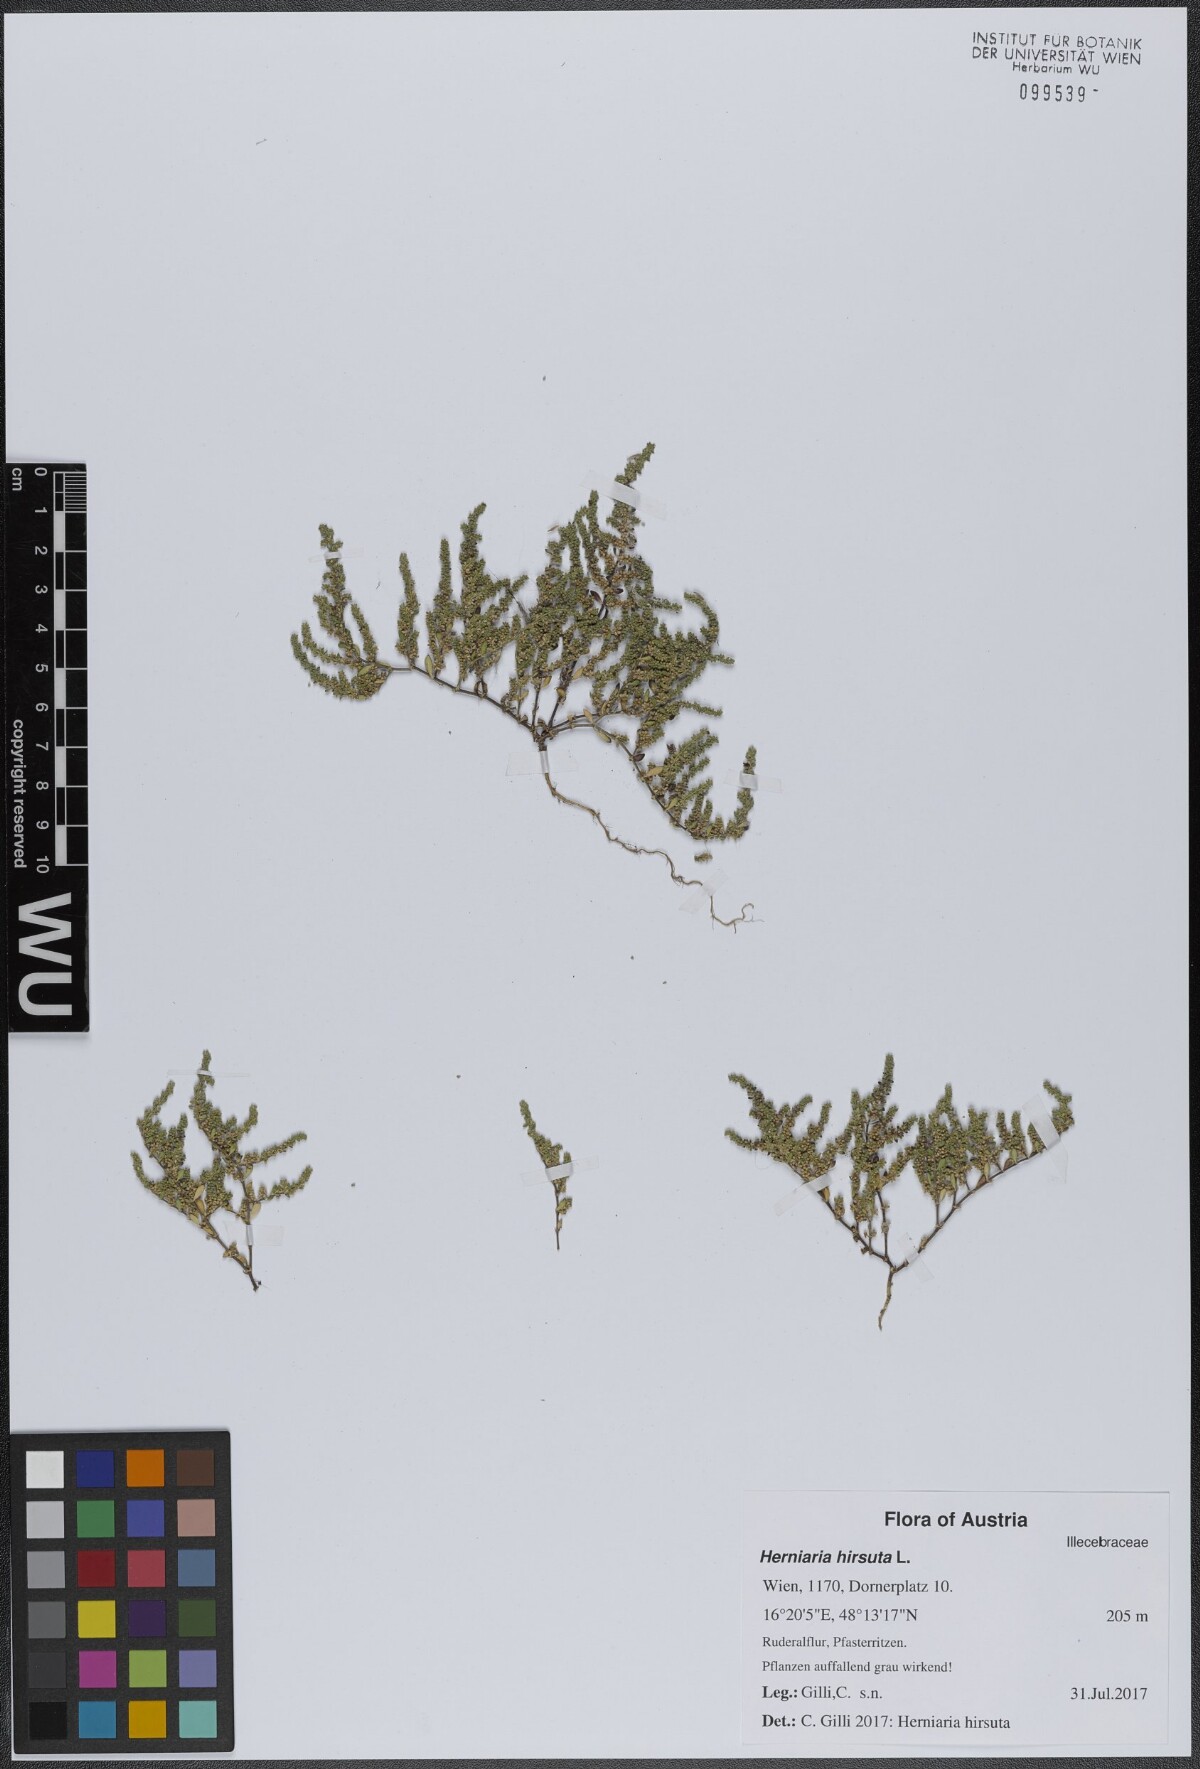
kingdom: Plantae
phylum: Tracheophyta
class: Magnoliopsida
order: Caryophyllales
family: Caryophyllaceae
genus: Herniaria
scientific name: Herniaria hirsuta
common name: Hairy rupturewort
